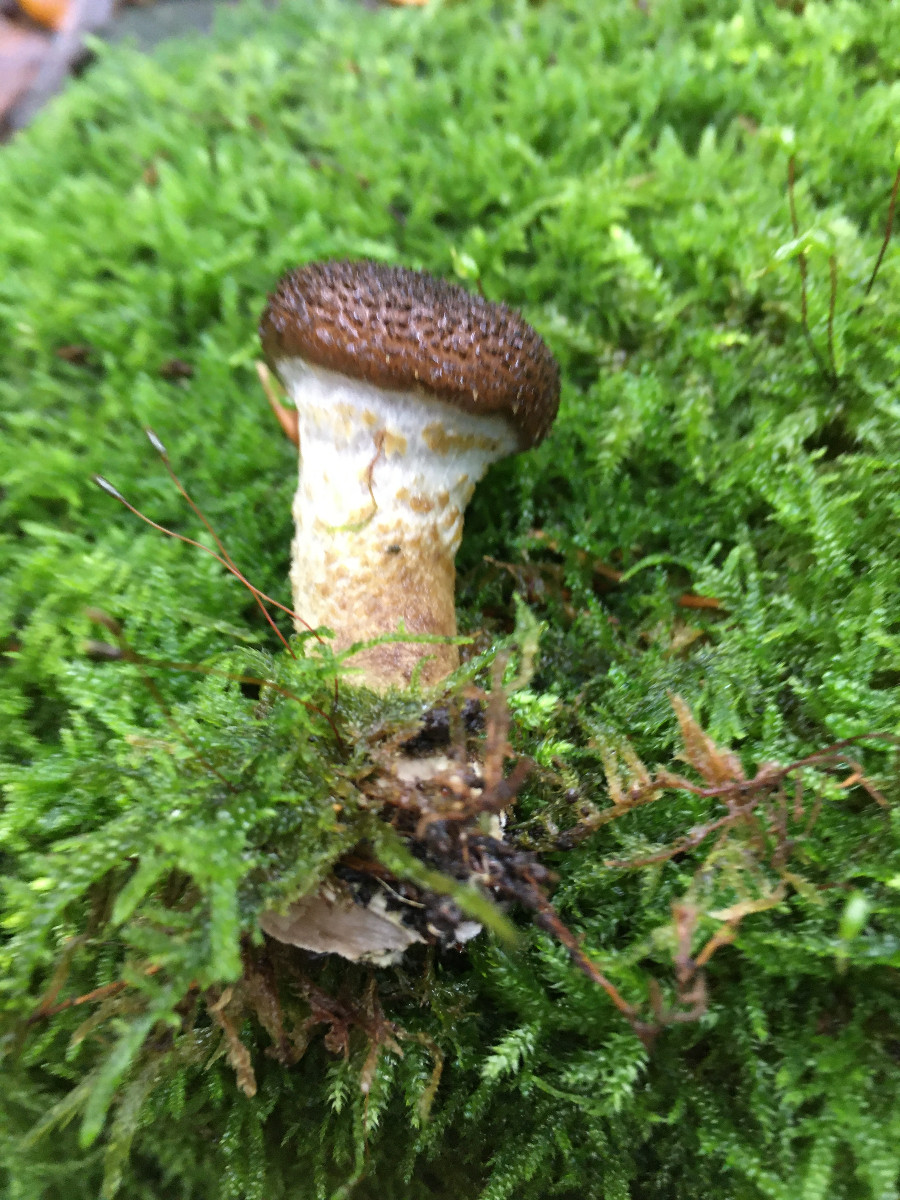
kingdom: Fungi
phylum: Basidiomycota
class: Agaricomycetes
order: Agaricales
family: Physalacriaceae
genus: Armillaria
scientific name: Armillaria
